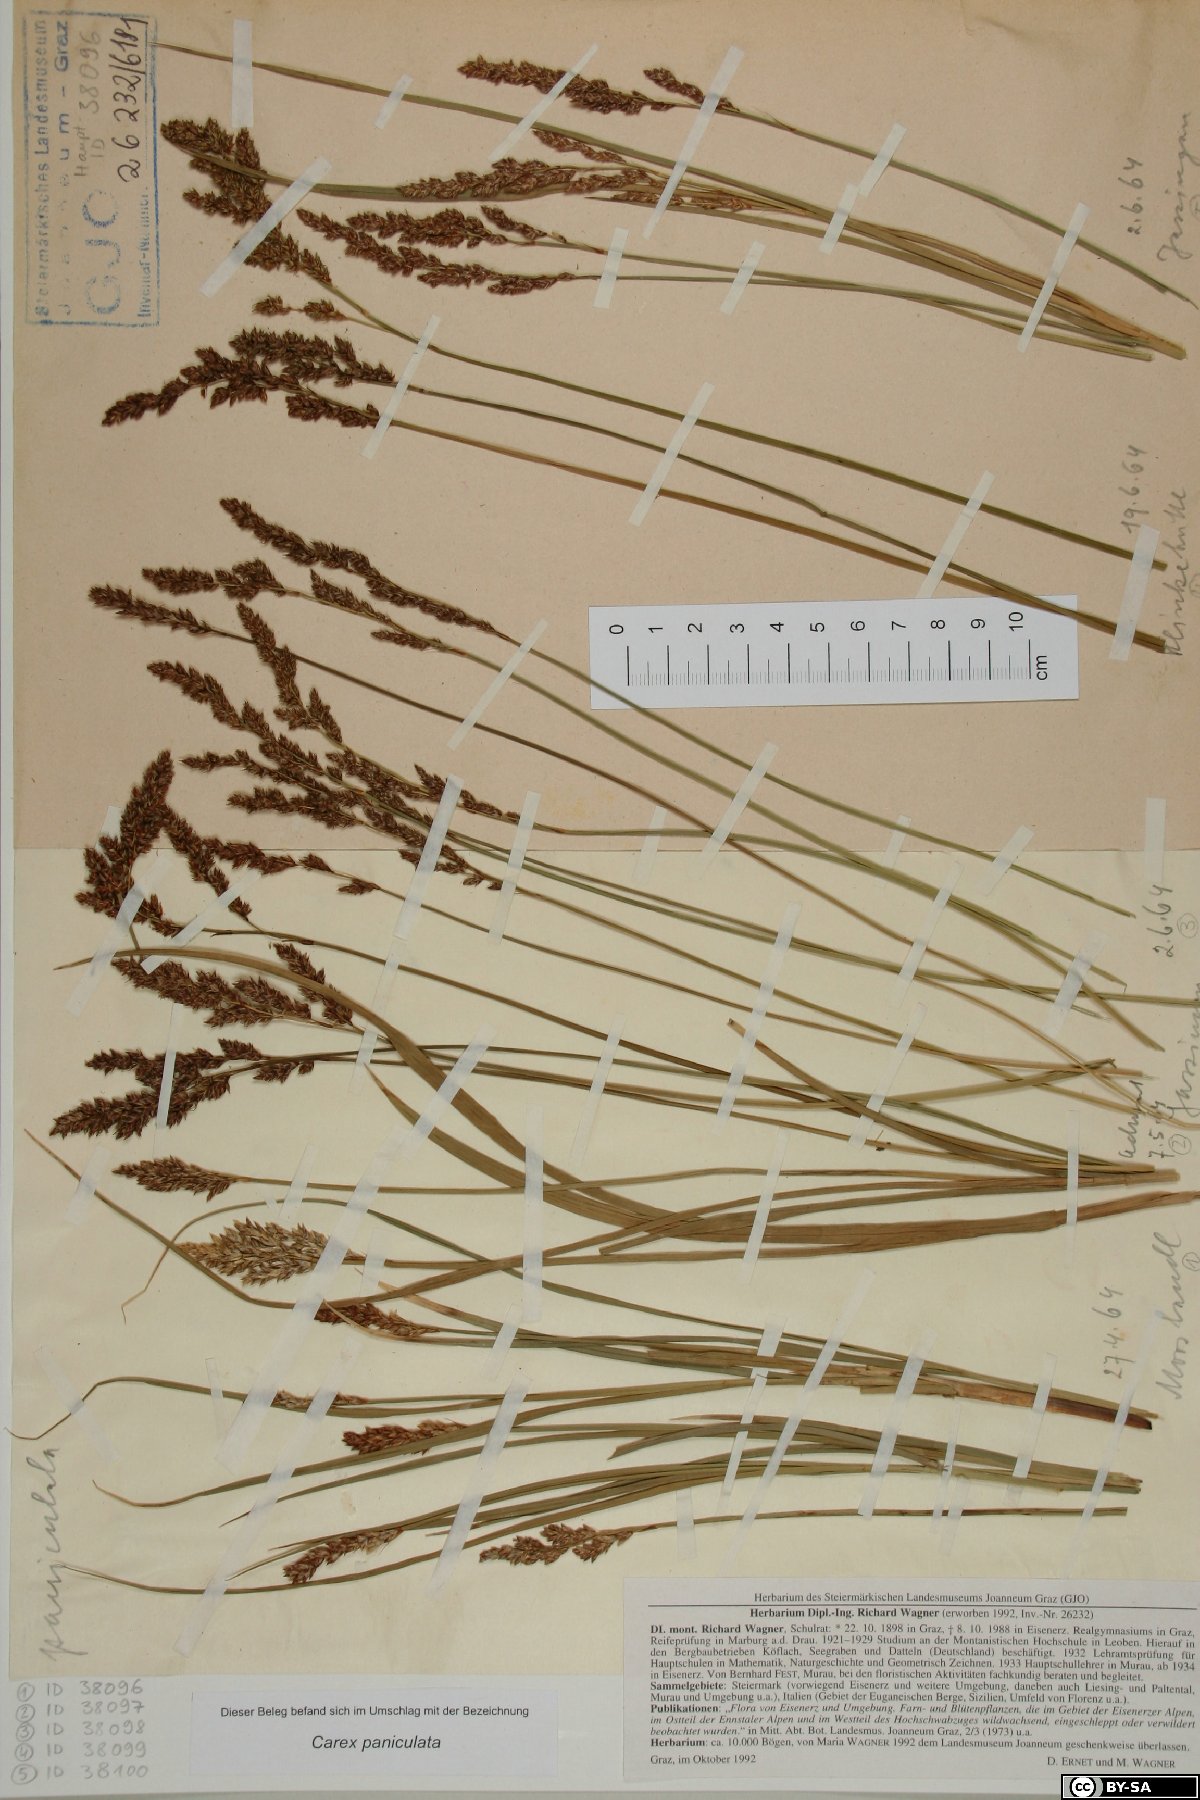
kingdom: Plantae
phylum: Tracheophyta
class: Liliopsida
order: Poales
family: Cyperaceae
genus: Carex
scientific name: Carex paniculata
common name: Greater tussock-sedge
